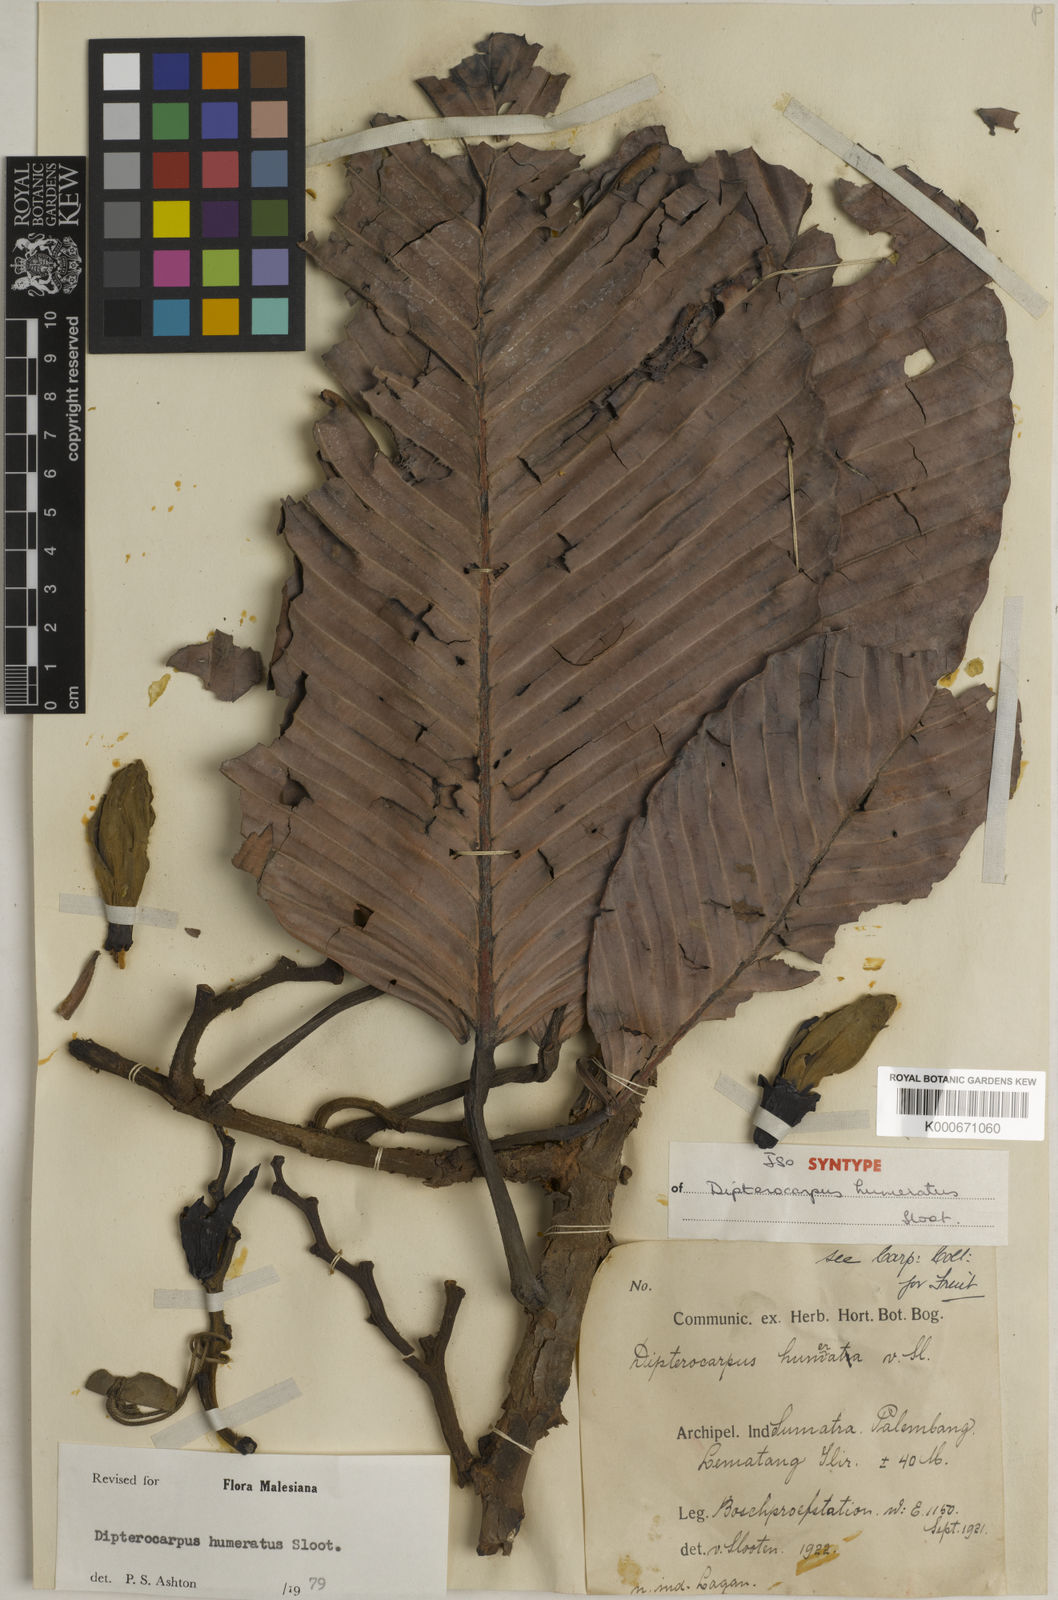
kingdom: Plantae
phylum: Tracheophyta
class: Magnoliopsida
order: Malvales
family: Dipterocarpaceae
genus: Dipterocarpus
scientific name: Dipterocarpus humeratus
